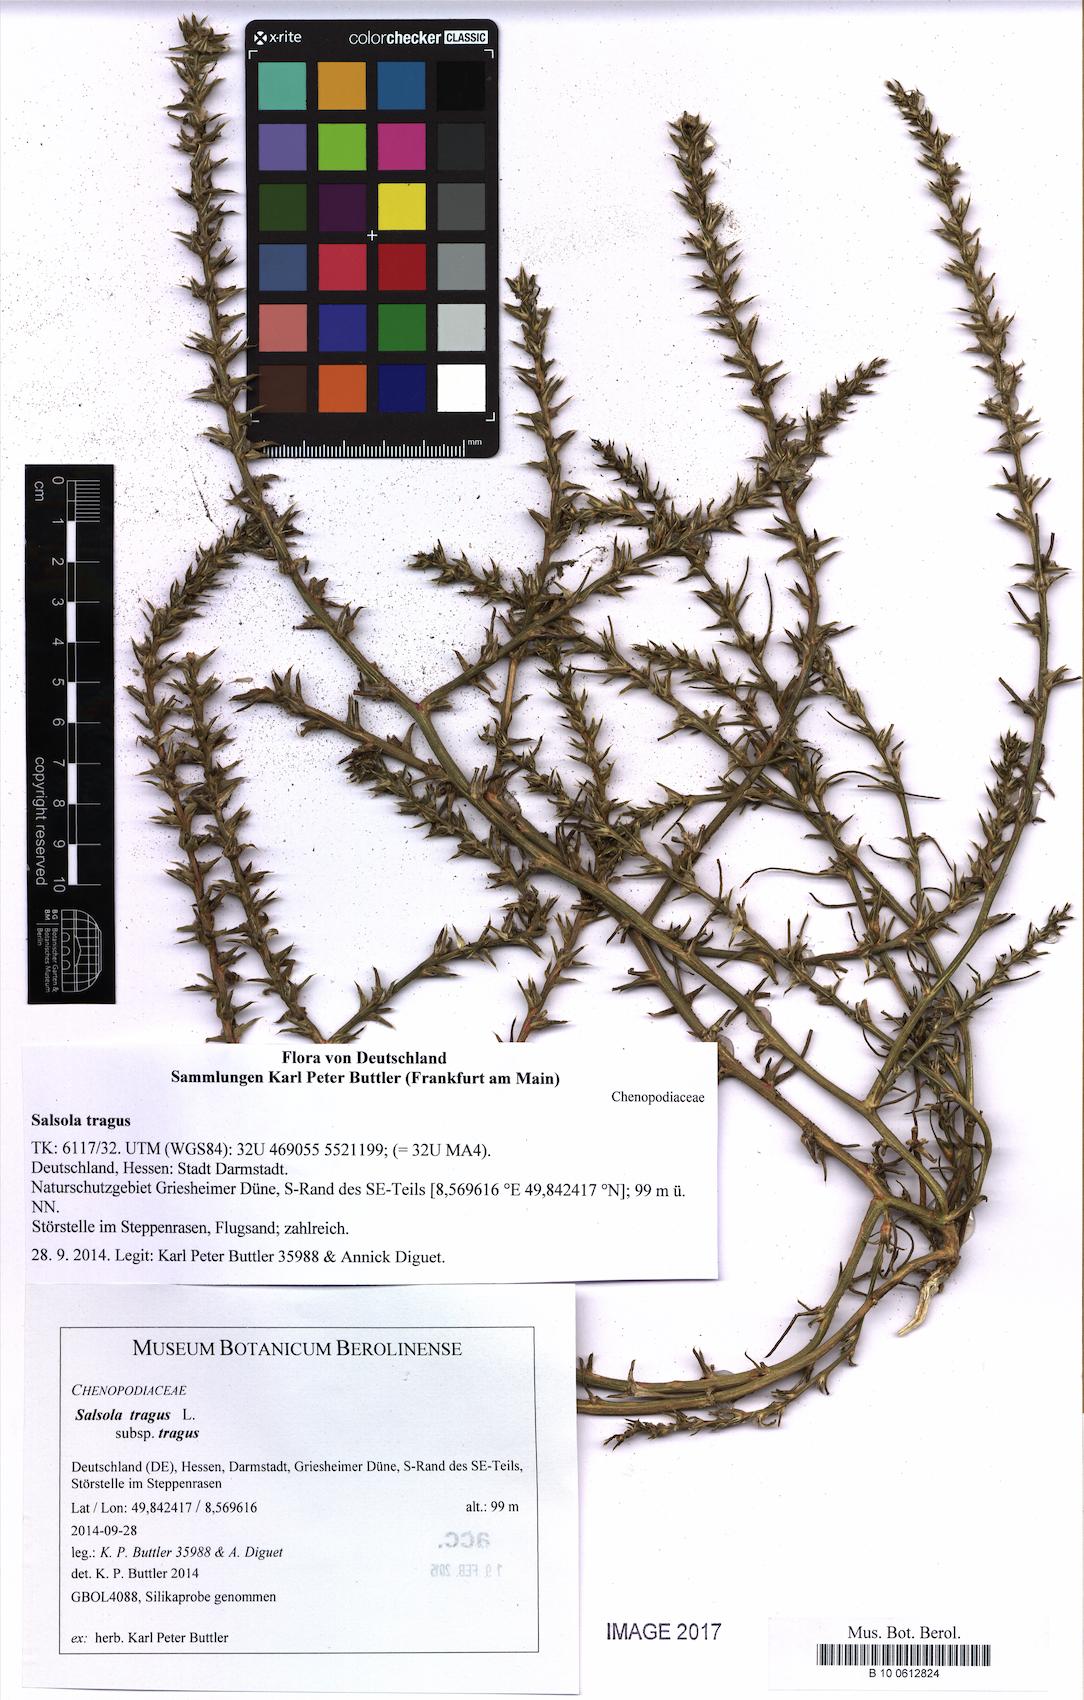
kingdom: Plantae
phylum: Tracheophyta
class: Magnoliopsida
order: Caryophyllales
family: Amaranthaceae
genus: Salsola
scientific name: Salsola tragus
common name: Prickly russian thistle
